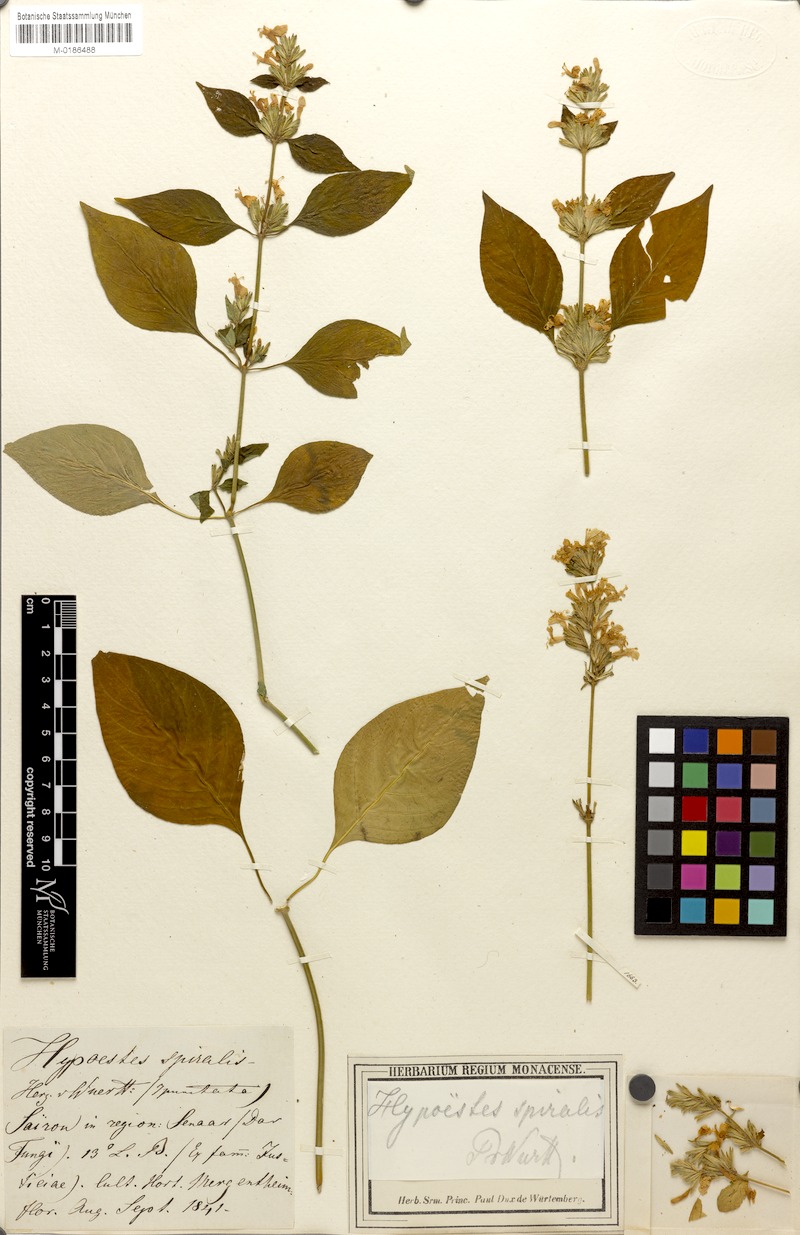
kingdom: Plantae
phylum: Tracheophyta
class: Magnoliopsida
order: Lamiales
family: Acanthaceae
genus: Hypoestes
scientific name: Hypoestes
